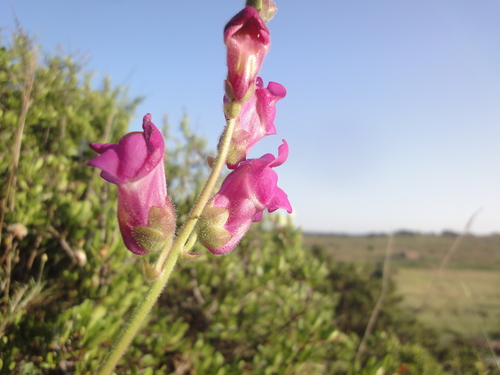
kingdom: Plantae
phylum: Tracheophyta
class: Magnoliopsida
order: Lamiales
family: Plantaginaceae
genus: Antirrhinum
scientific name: Antirrhinum cirrhigerum
